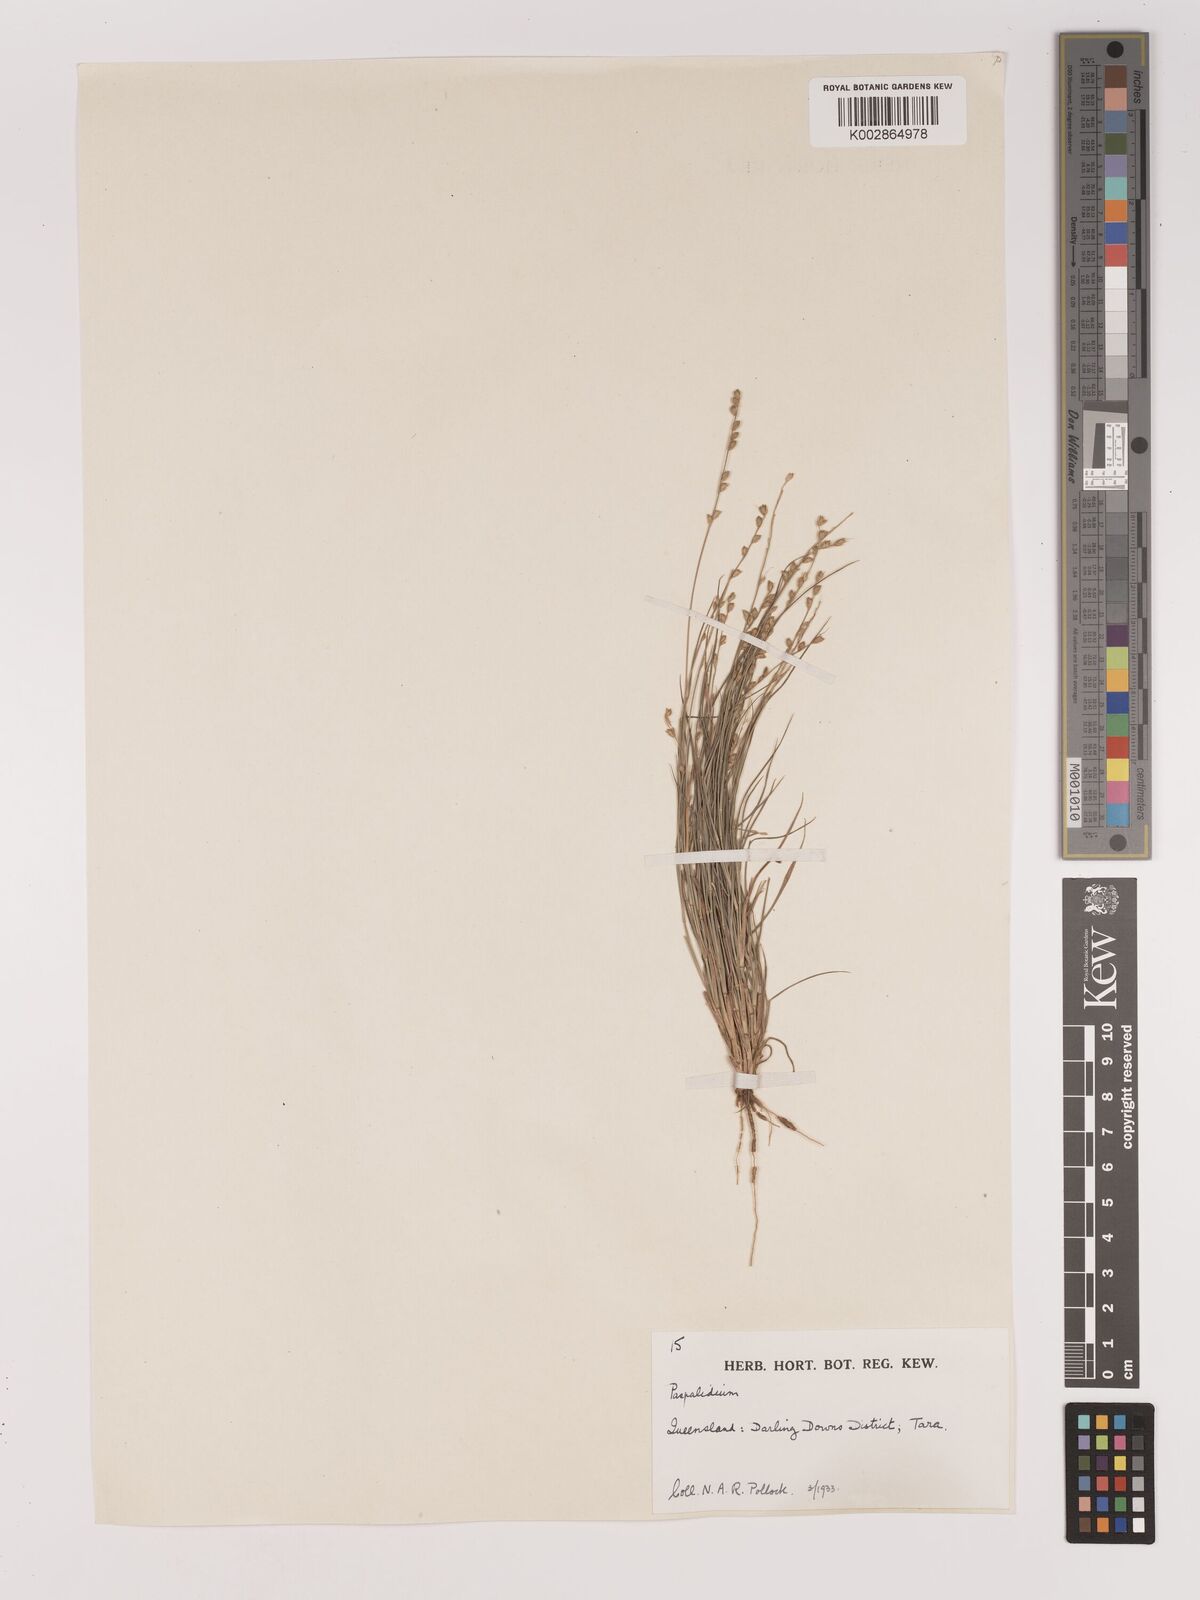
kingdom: Plantae
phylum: Tracheophyta
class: Liliopsida
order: Poales
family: Poaceae
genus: Setaria
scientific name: Setaria
